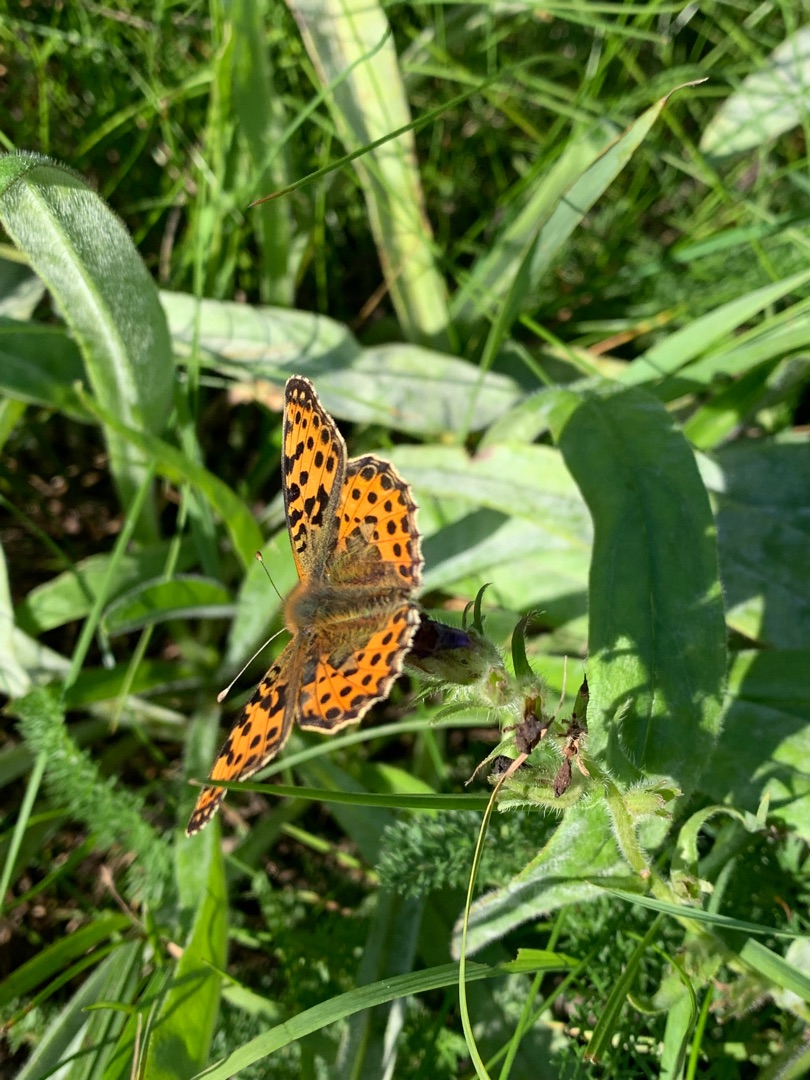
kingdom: Animalia
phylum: Arthropoda
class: Insecta
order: Lepidoptera
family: Nymphalidae
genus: Issoria
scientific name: Issoria lathonia
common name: Storplettet perlemorsommerfugl
